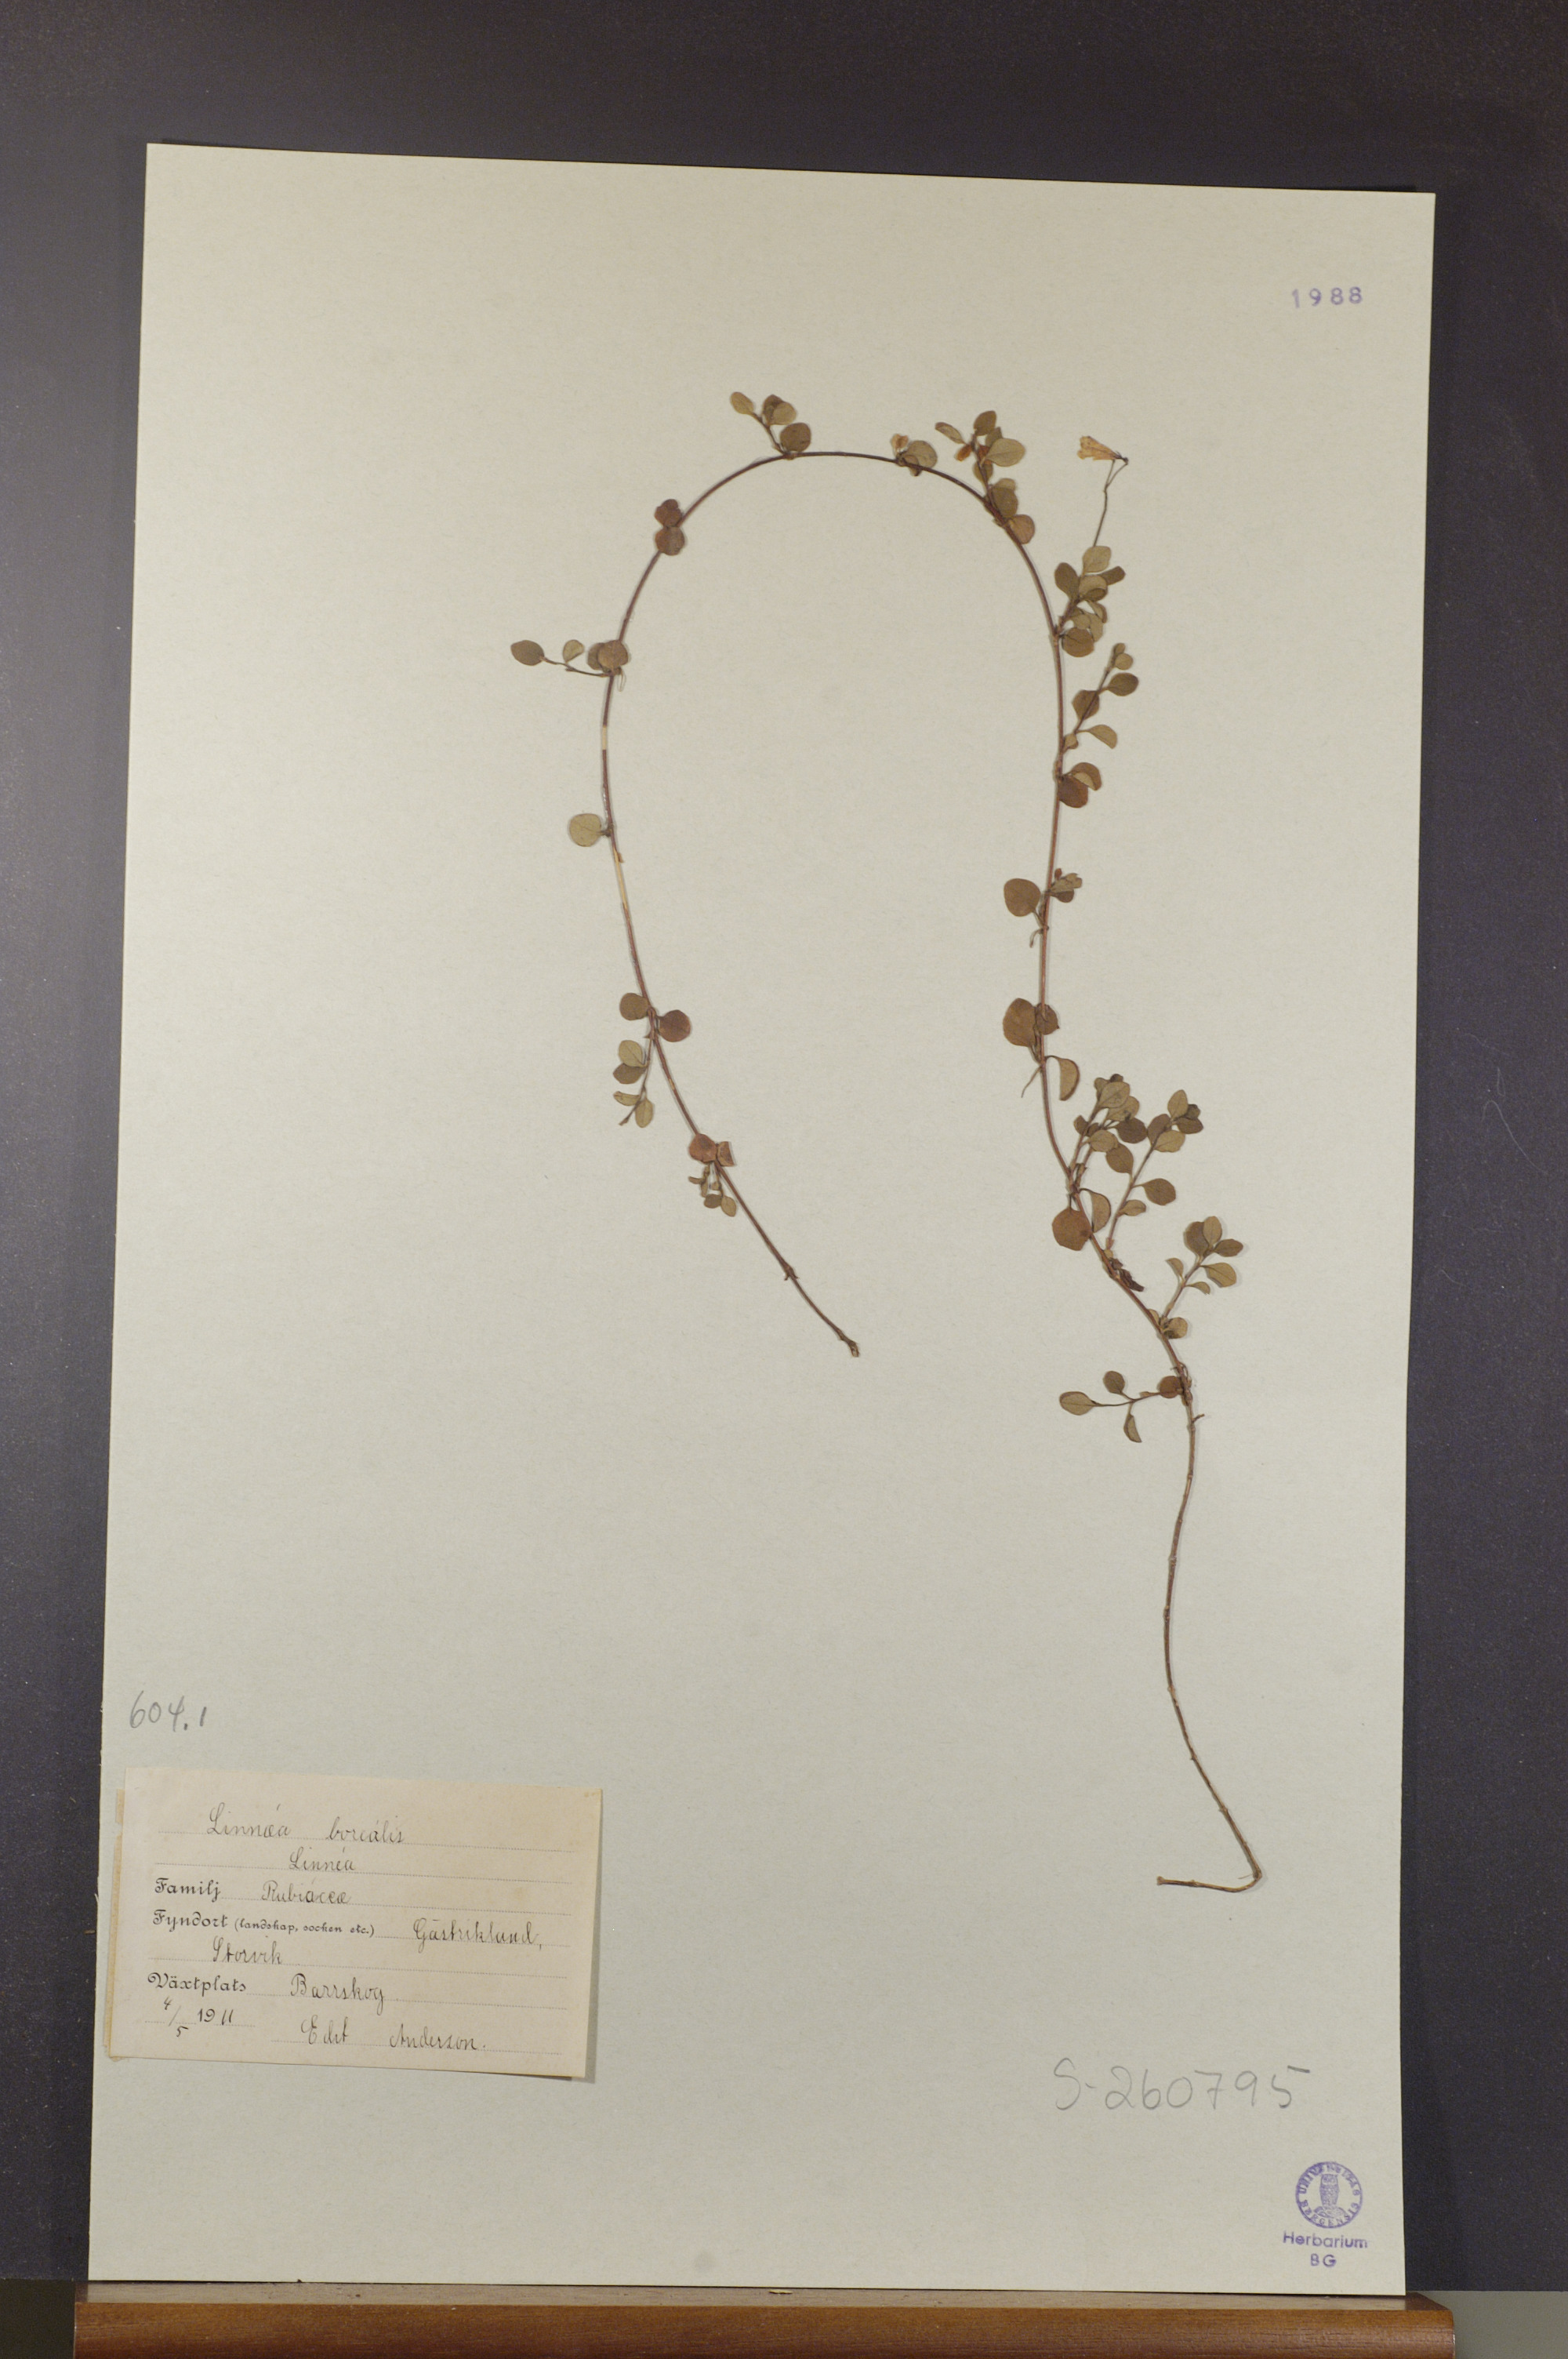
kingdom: Plantae
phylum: Tracheophyta
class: Magnoliopsida
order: Dipsacales
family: Caprifoliaceae
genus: Linnaea
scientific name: Linnaea borealis
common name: Twinflower
